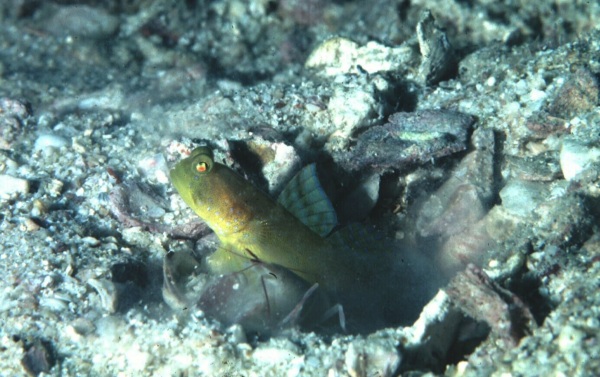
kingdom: Animalia
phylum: Chordata
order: Perciformes
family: Gobiidae
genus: Cryptocentrus
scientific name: Cryptocentrus cinctus
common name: Yellow shrimp goby
